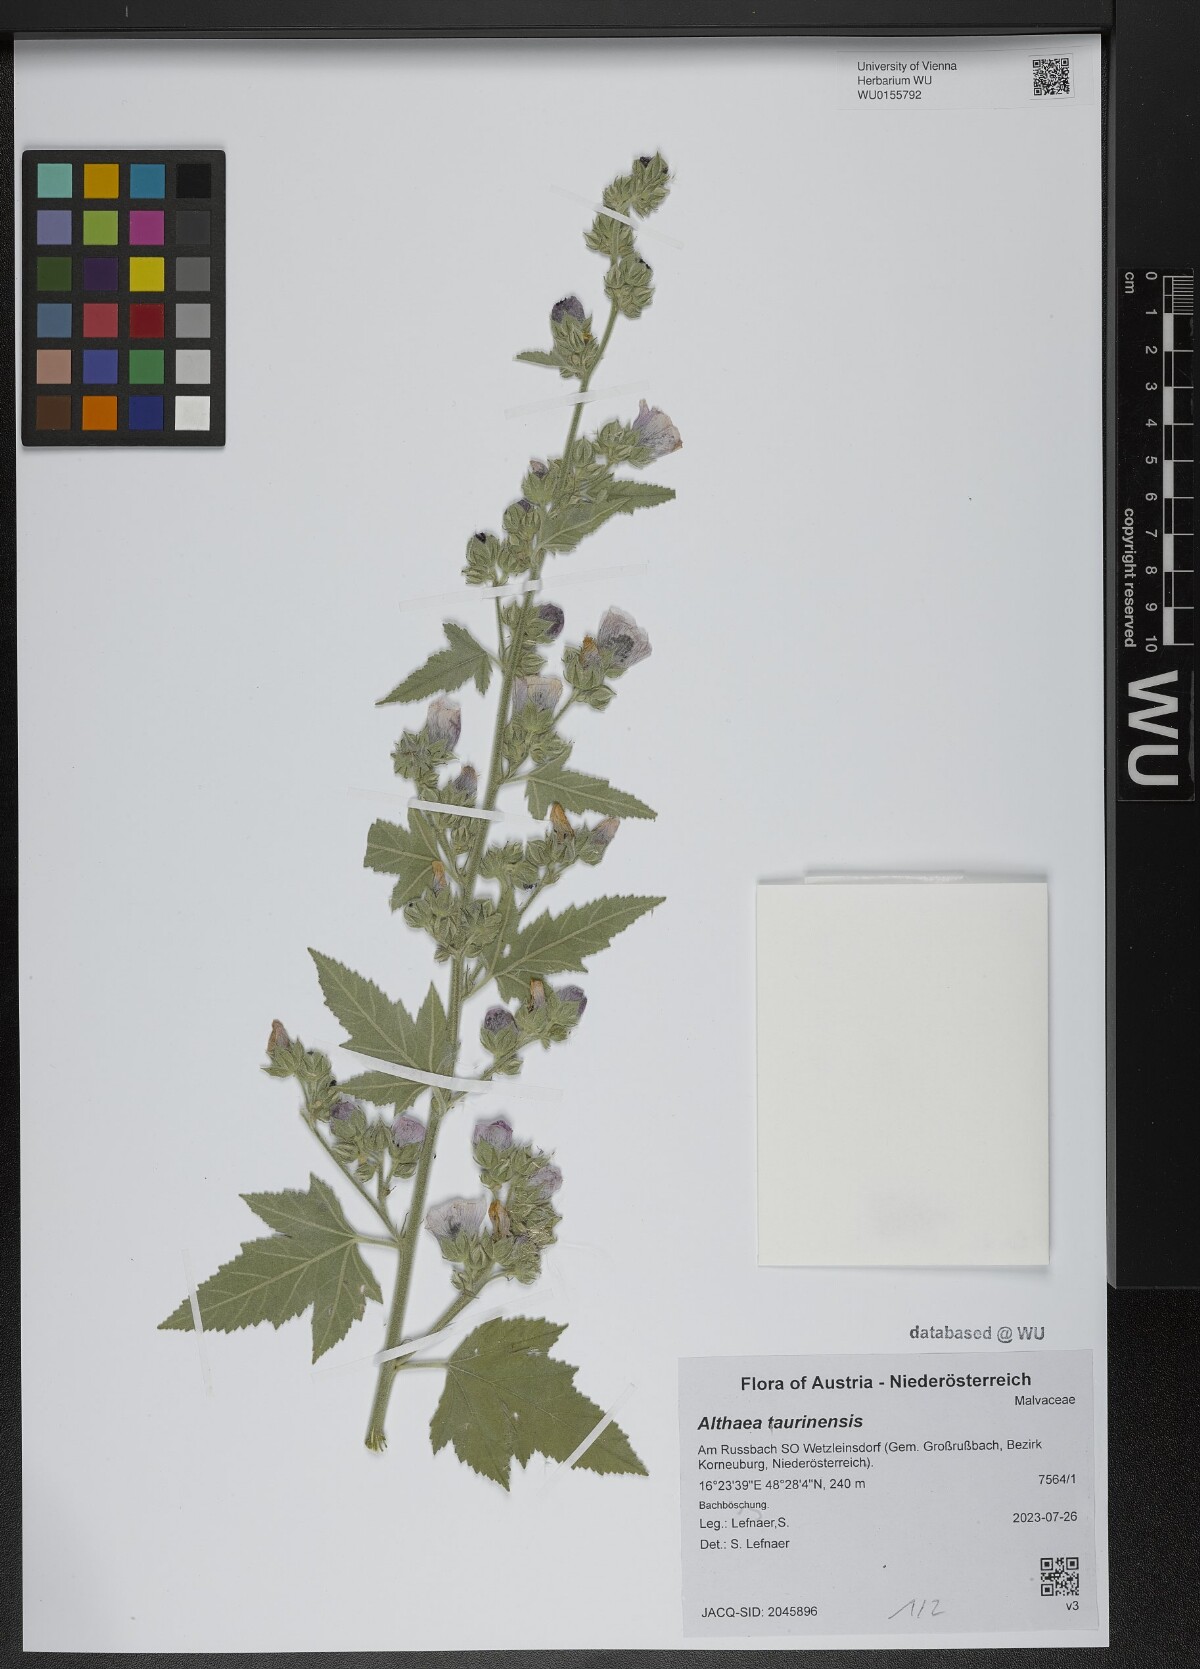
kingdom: Plantae
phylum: Tracheophyta
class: Magnoliopsida
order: Malvales
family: Malvaceae
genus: Althaea
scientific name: Althaea taurinensis
